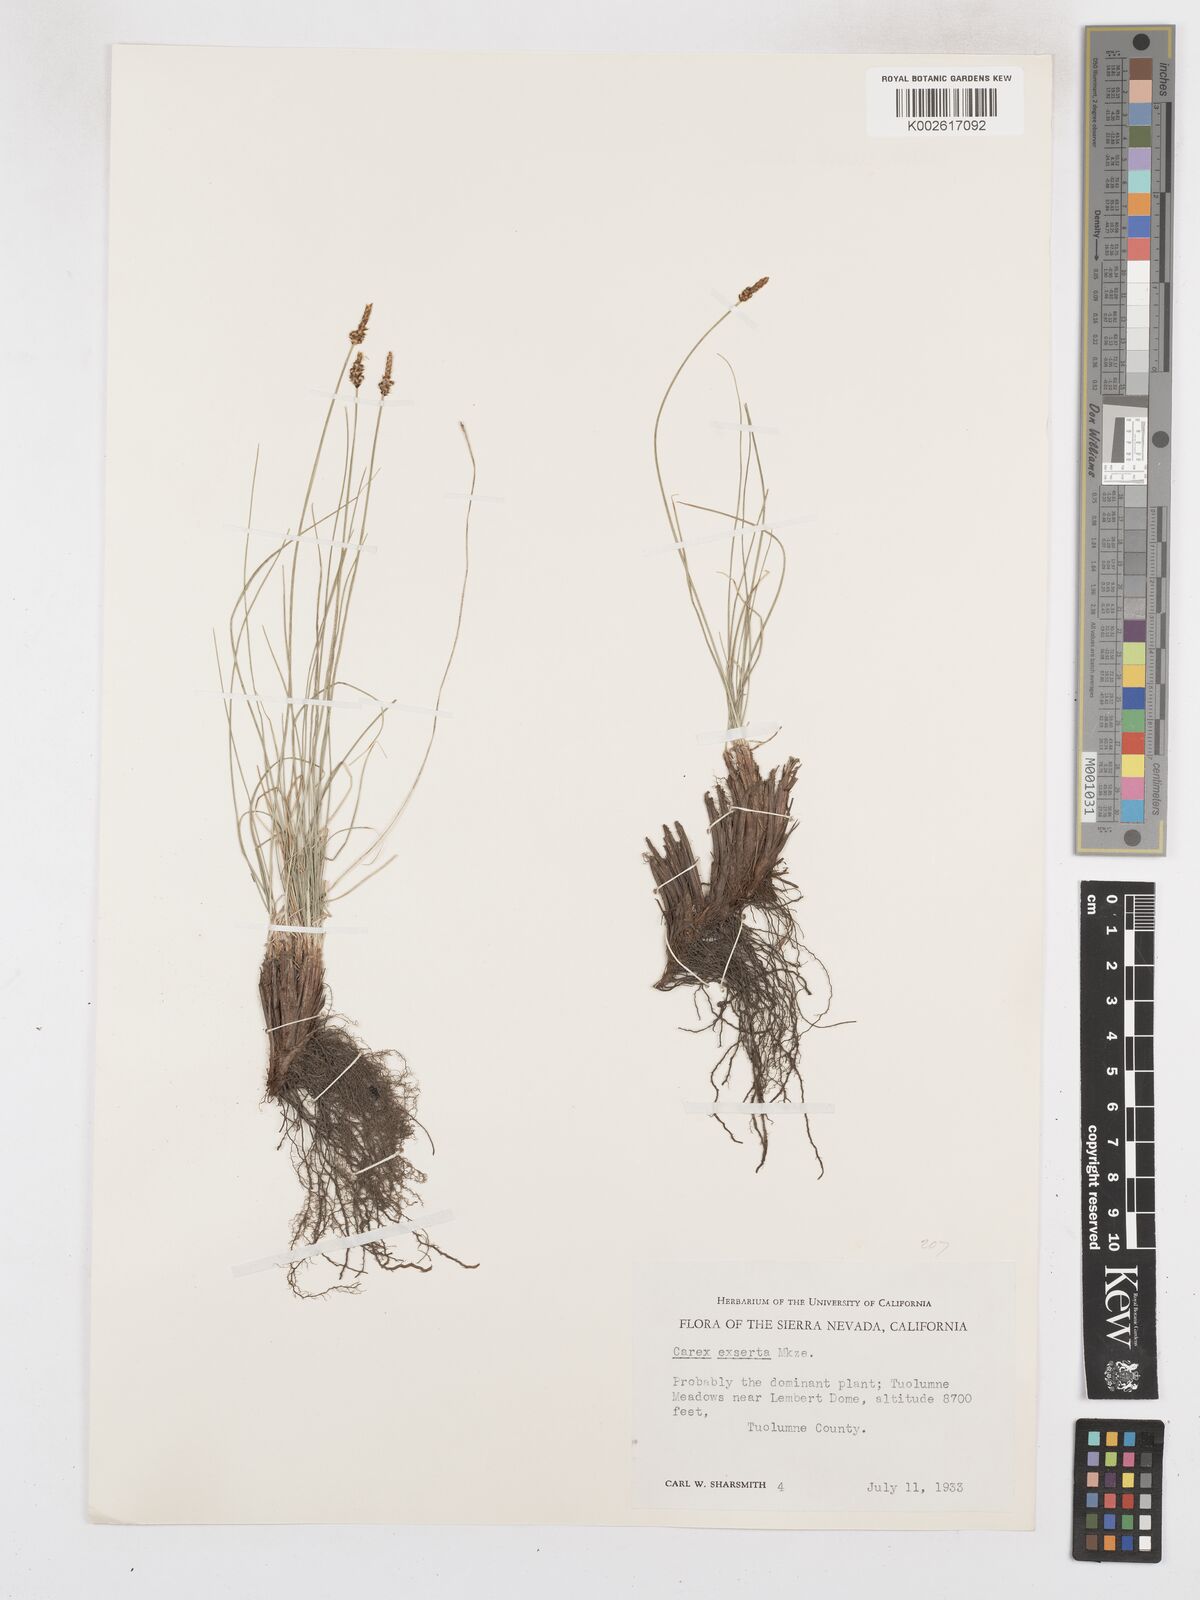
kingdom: Plantae
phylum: Tracheophyta
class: Liliopsida
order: Poales
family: Cyperaceae
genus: Carex
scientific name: Carex glossostigma
